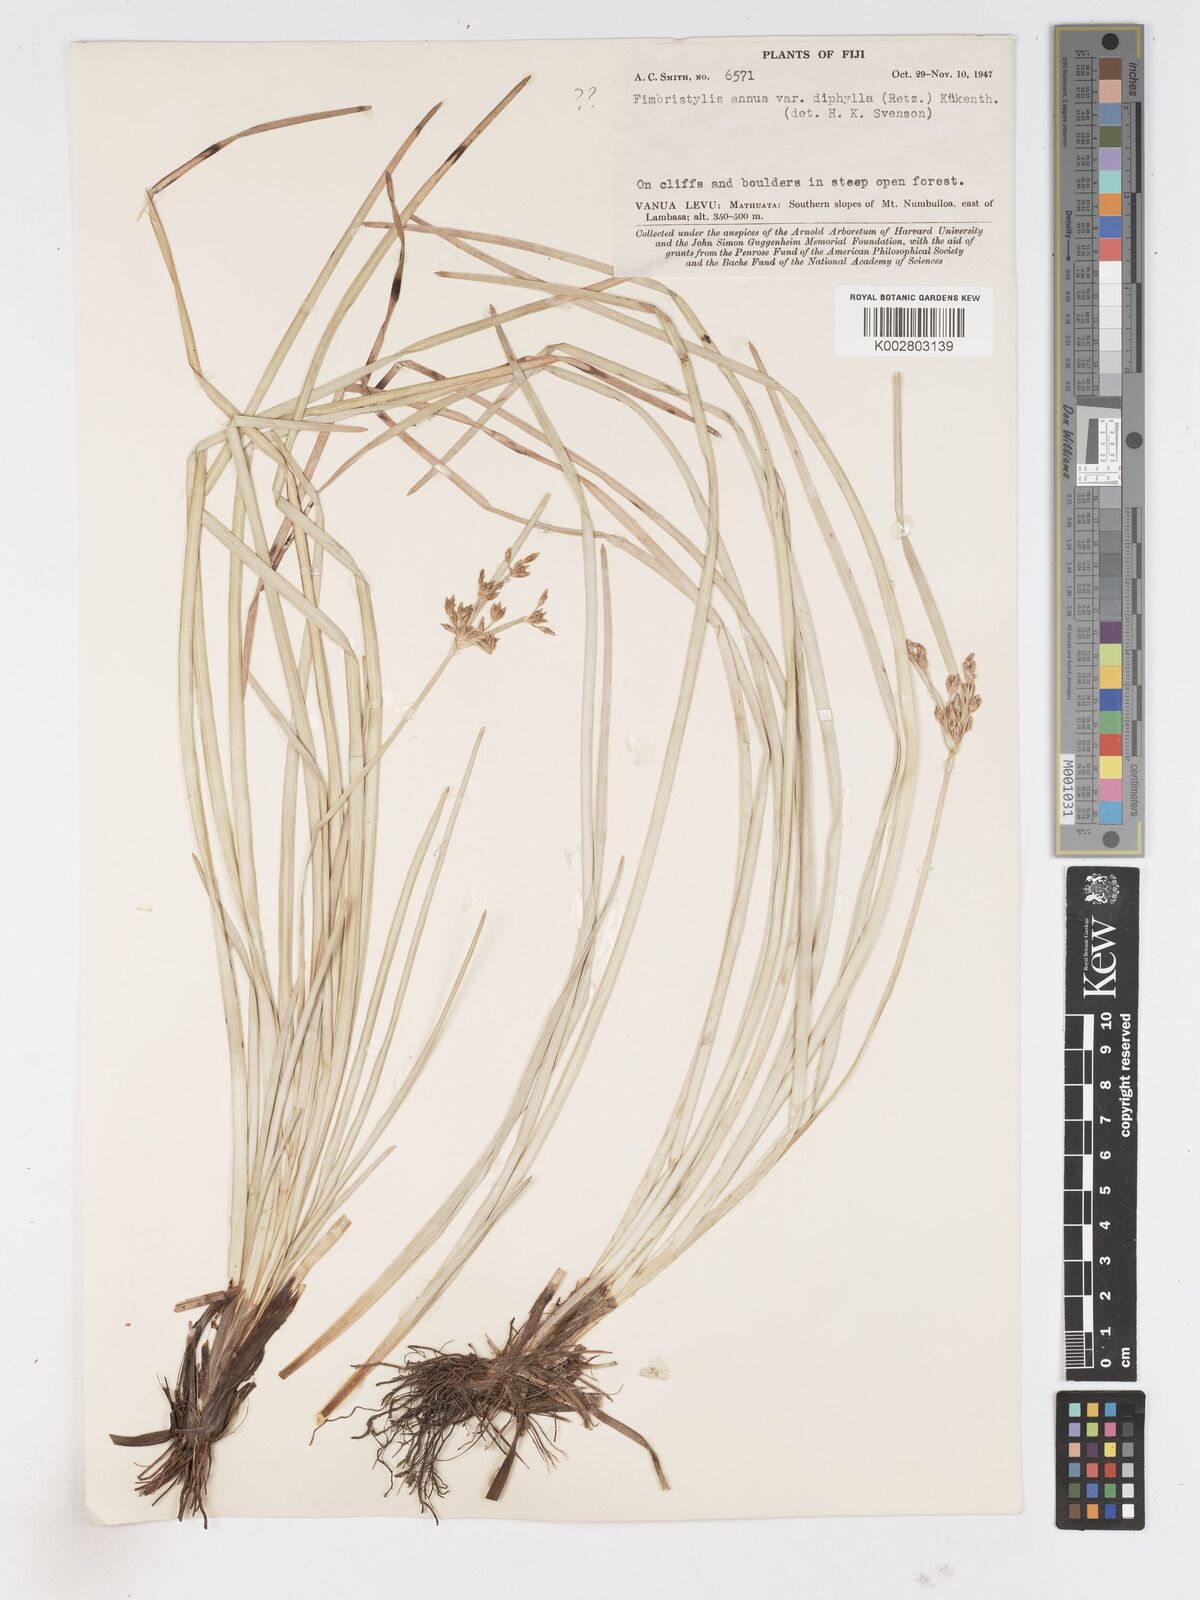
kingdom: Plantae
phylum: Tracheophyta
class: Liliopsida
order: Poales
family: Cyperaceae
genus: Fimbristylis
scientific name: Fimbristylis complanata
